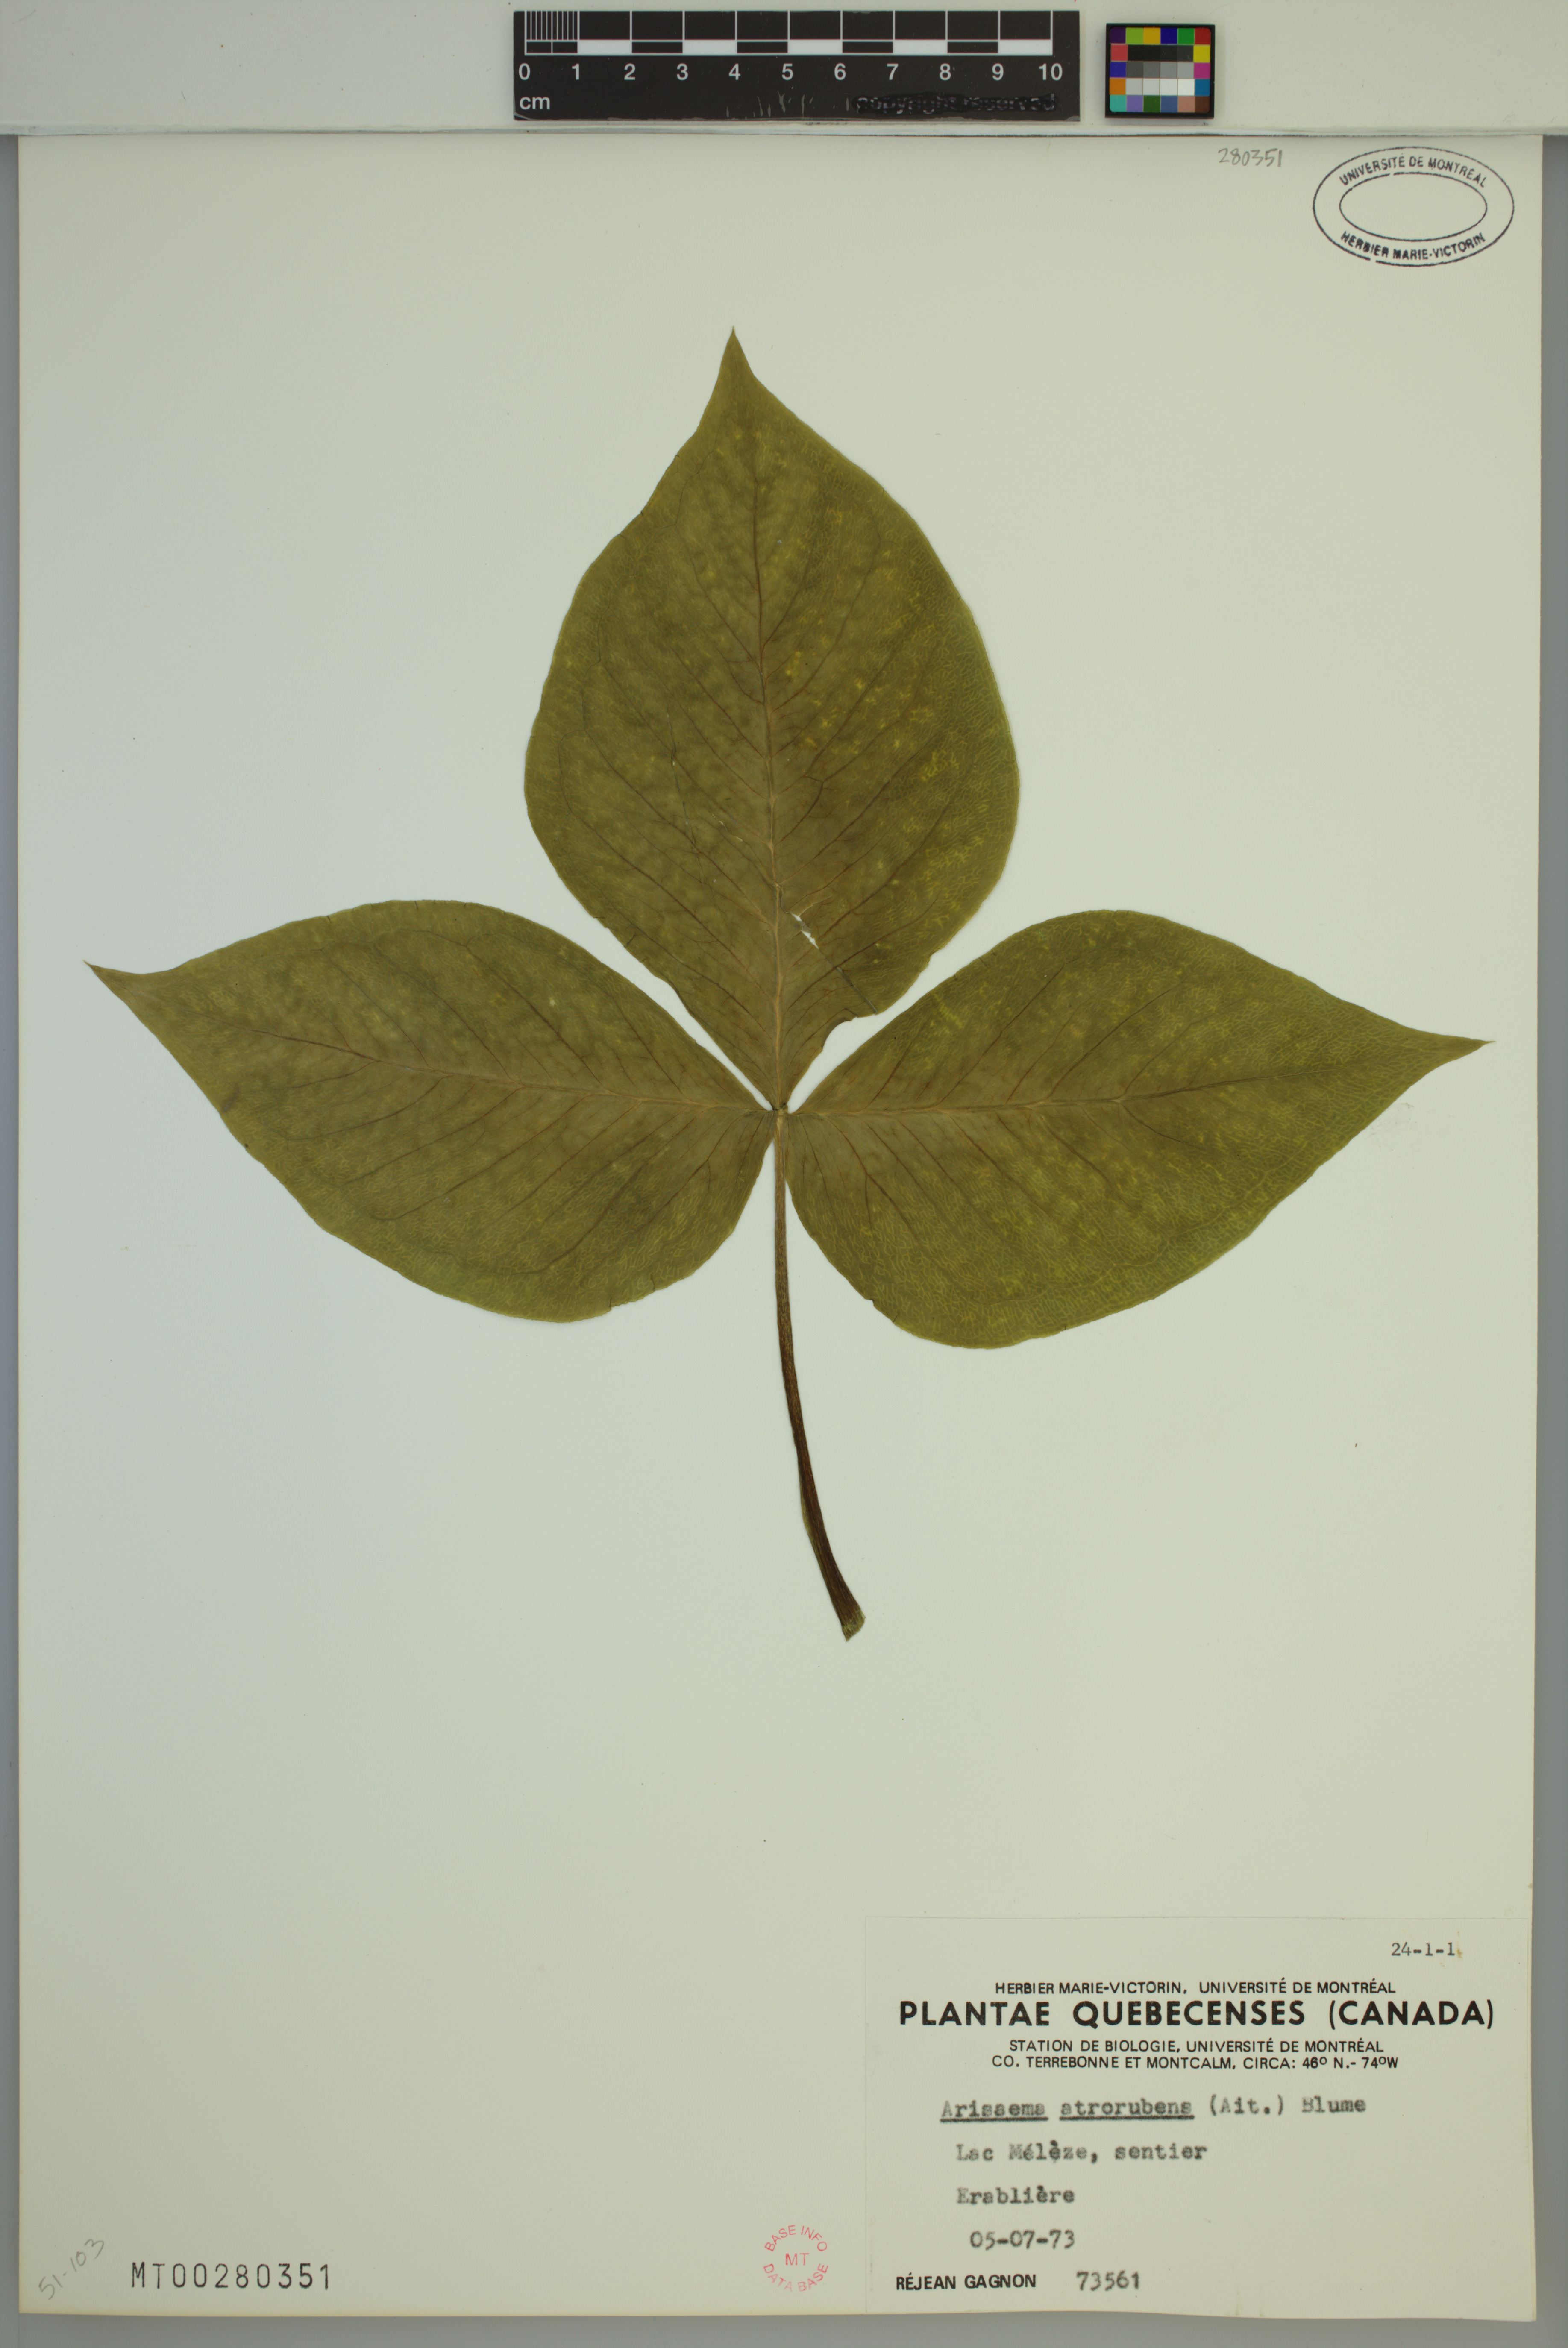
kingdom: Plantae
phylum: Tracheophyta
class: Liliopsida
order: Alismatales
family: Araceae
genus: Arisaema
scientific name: Arisaema triphyllum
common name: Jack-in-the-pulpit
